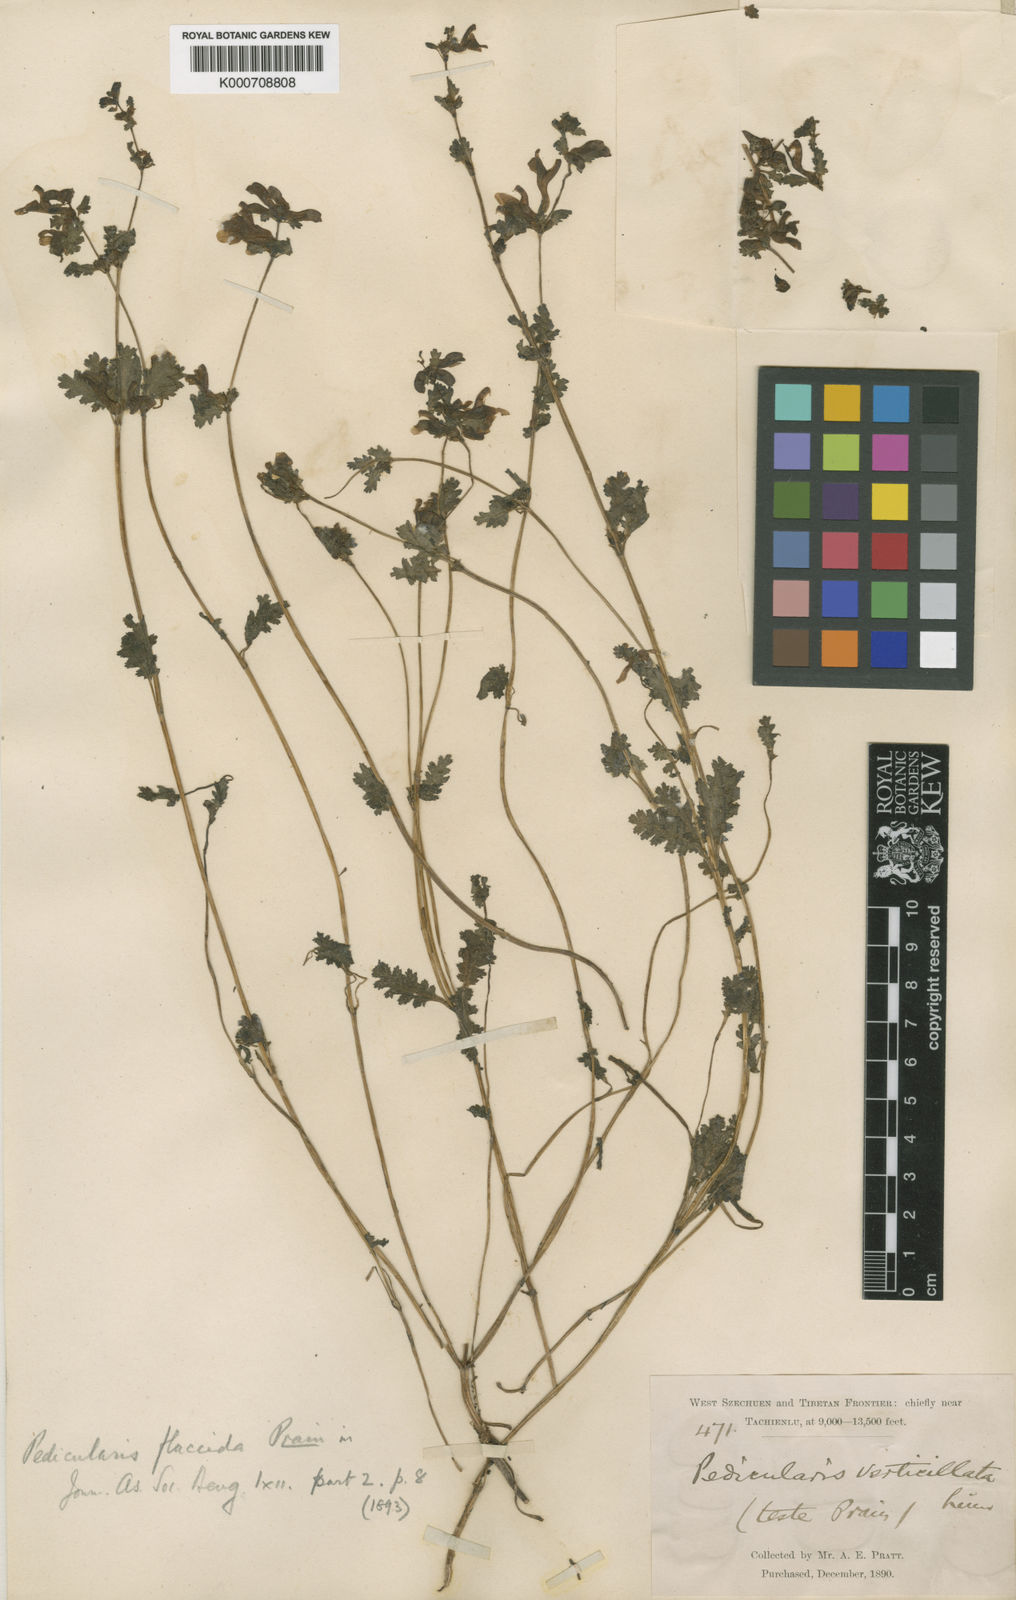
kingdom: Plantae
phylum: Tracheophyta
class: Magnoliopsida
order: Lamiales
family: Orobanchaceae
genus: Pedicularis
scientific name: Pedicularis flaccida
